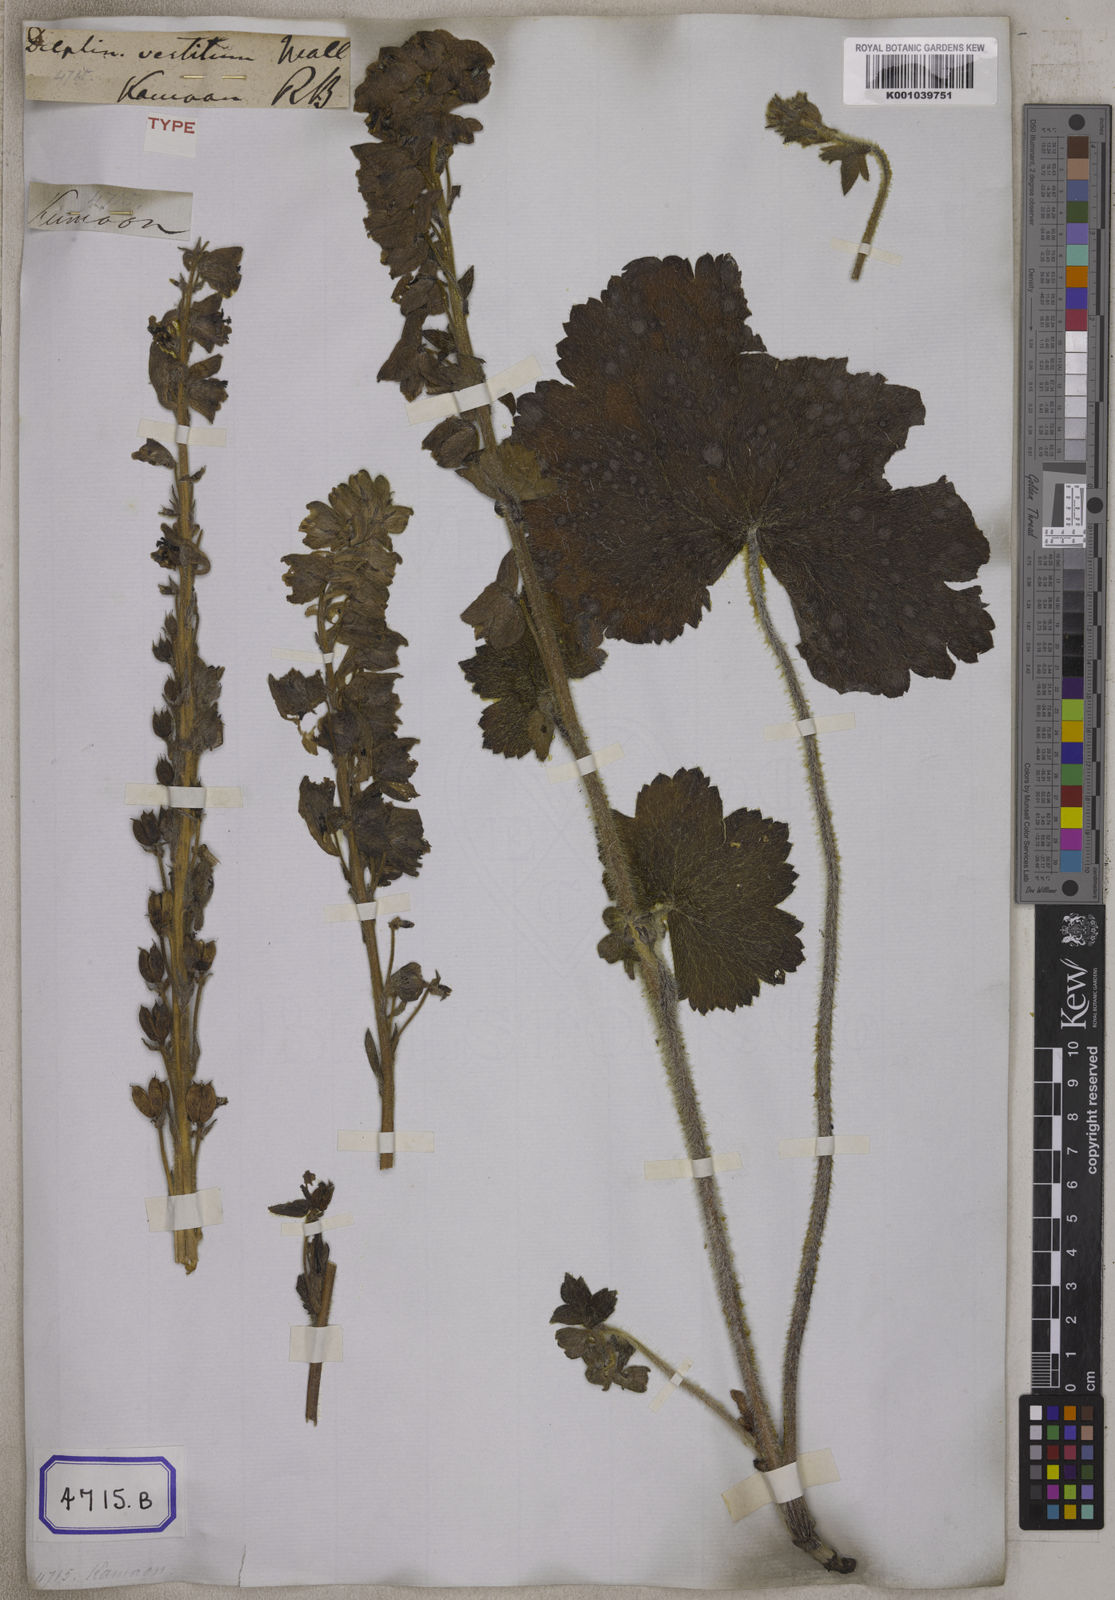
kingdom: Plantae
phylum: Tracheophyta
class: Magnoliopsida
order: Ranunculales
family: Ranunculaceae
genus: Delphinium
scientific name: Delphinium
